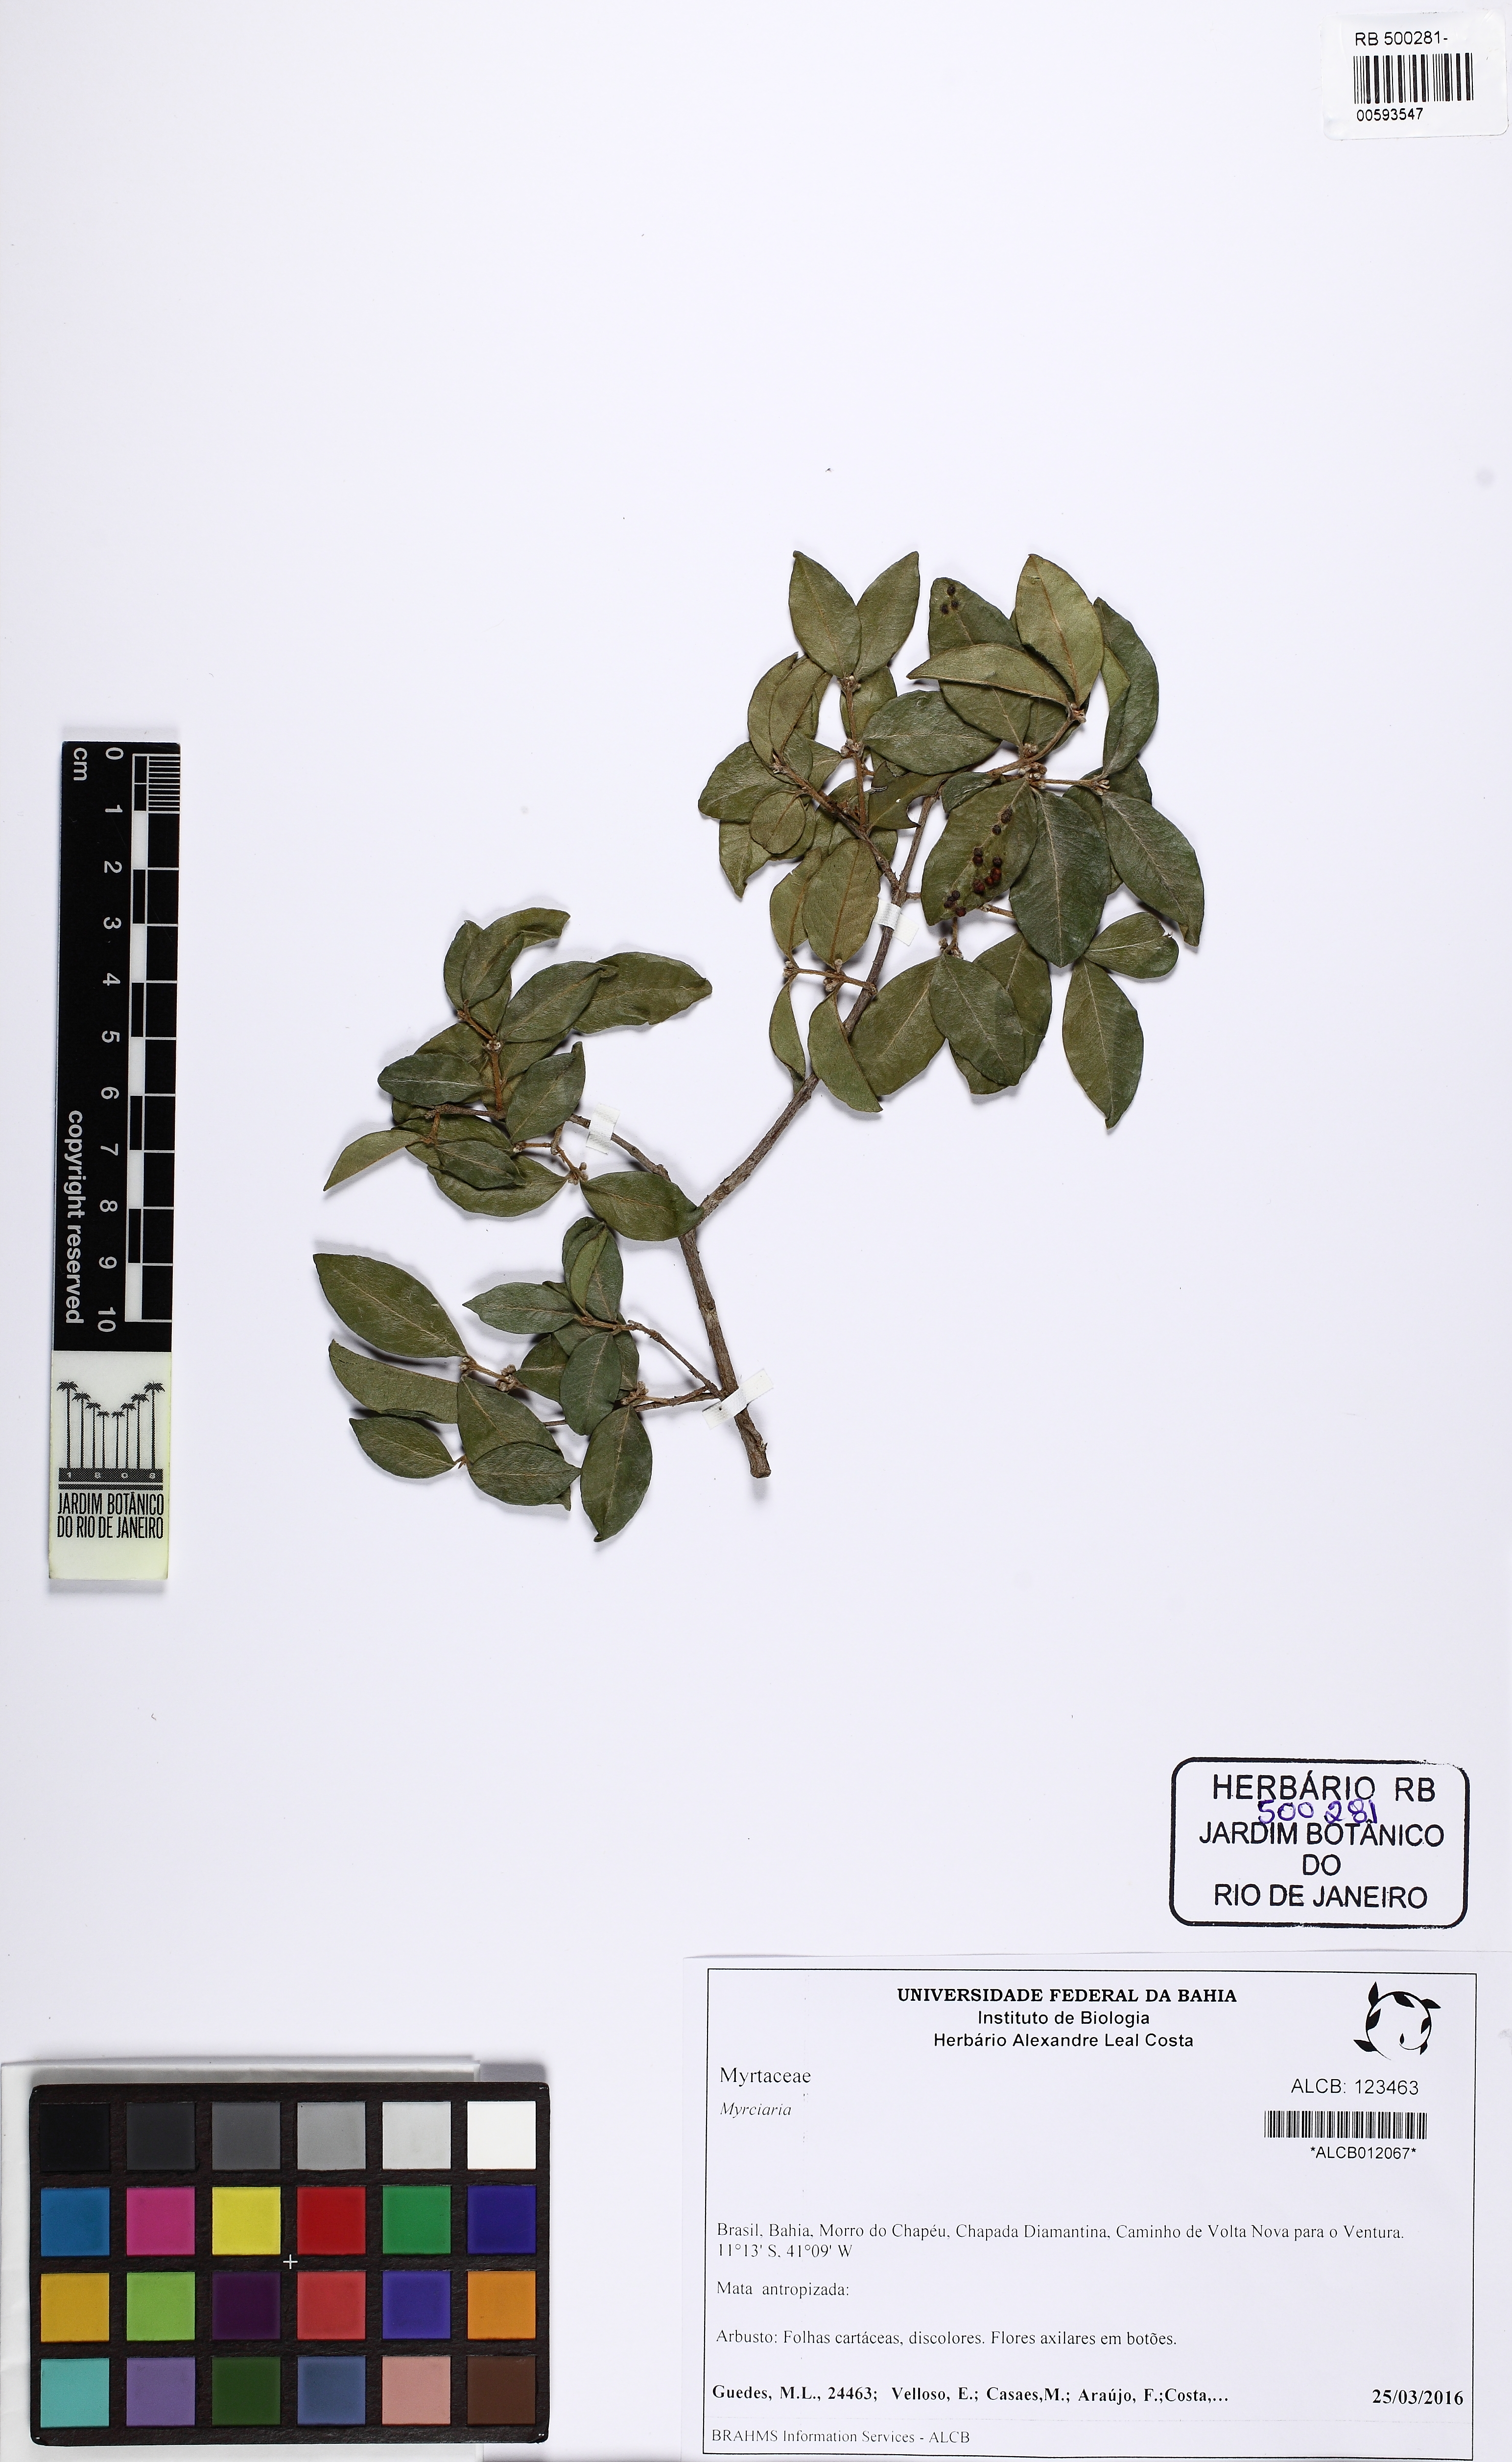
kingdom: Plantae
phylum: Tracheophyta
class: Magnoliopsida
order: Myrtales
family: Myrtaceae
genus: Myrciaria
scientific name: Myrciaria
